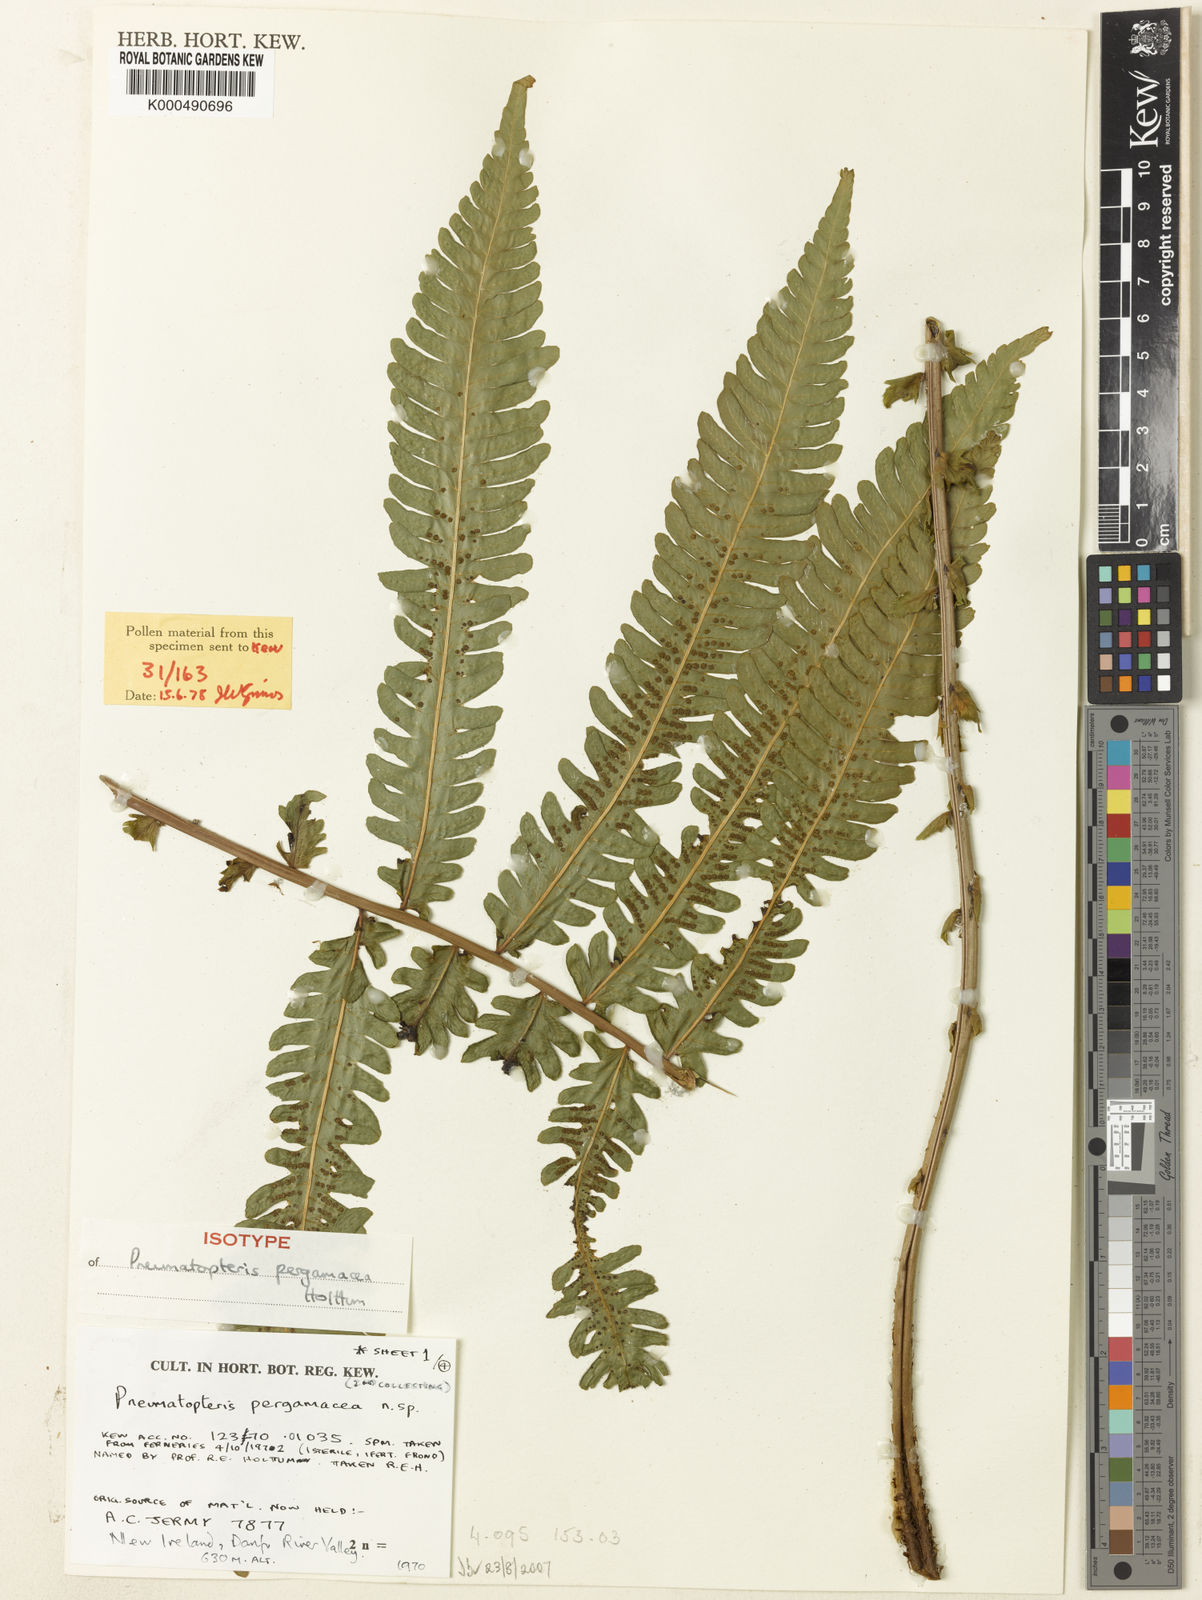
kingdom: Plantae
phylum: Tracheophyta
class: Polypodiopsida
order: Polypodiales
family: Thelypteridaceae
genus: Reholttumia
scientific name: Reholttumia pergamacea
